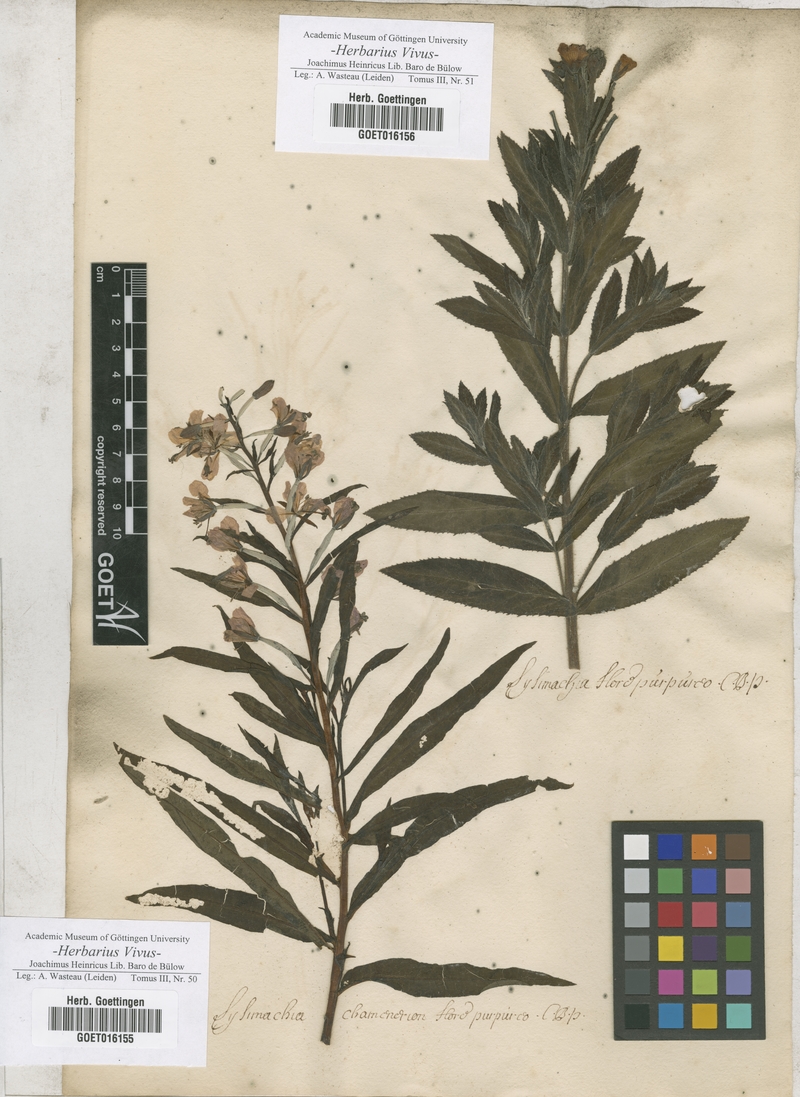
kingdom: Plantae
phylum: Tracheophyta
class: Magnoliopsida
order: Myrtales
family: Onagraceae
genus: Chamaenerion
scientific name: Chamaenerion angustifolium
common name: Fireweed
